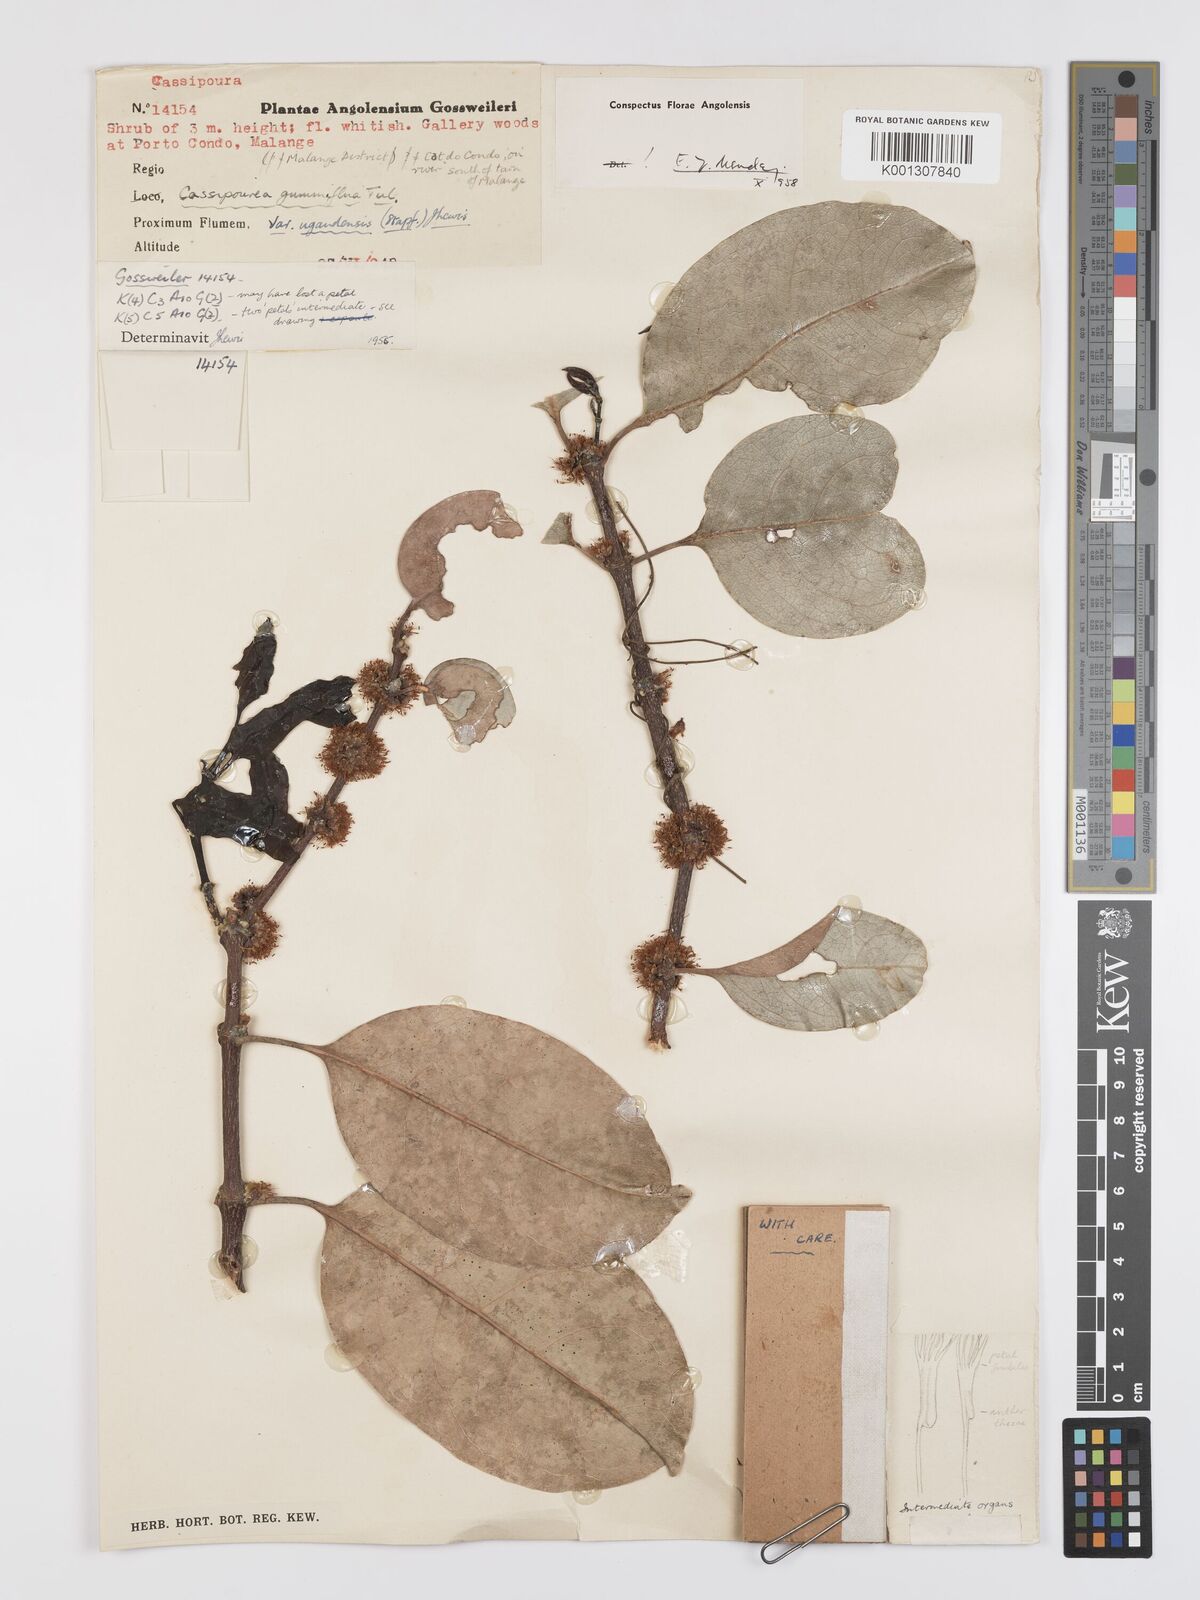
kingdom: Plantae
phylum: Tracheophyta
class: Magnoliopsida
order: Malpighiales
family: Rhizophoraceae
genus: Cassipourea
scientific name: Cassipourea gummiflua
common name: Large-leaved onionwood
